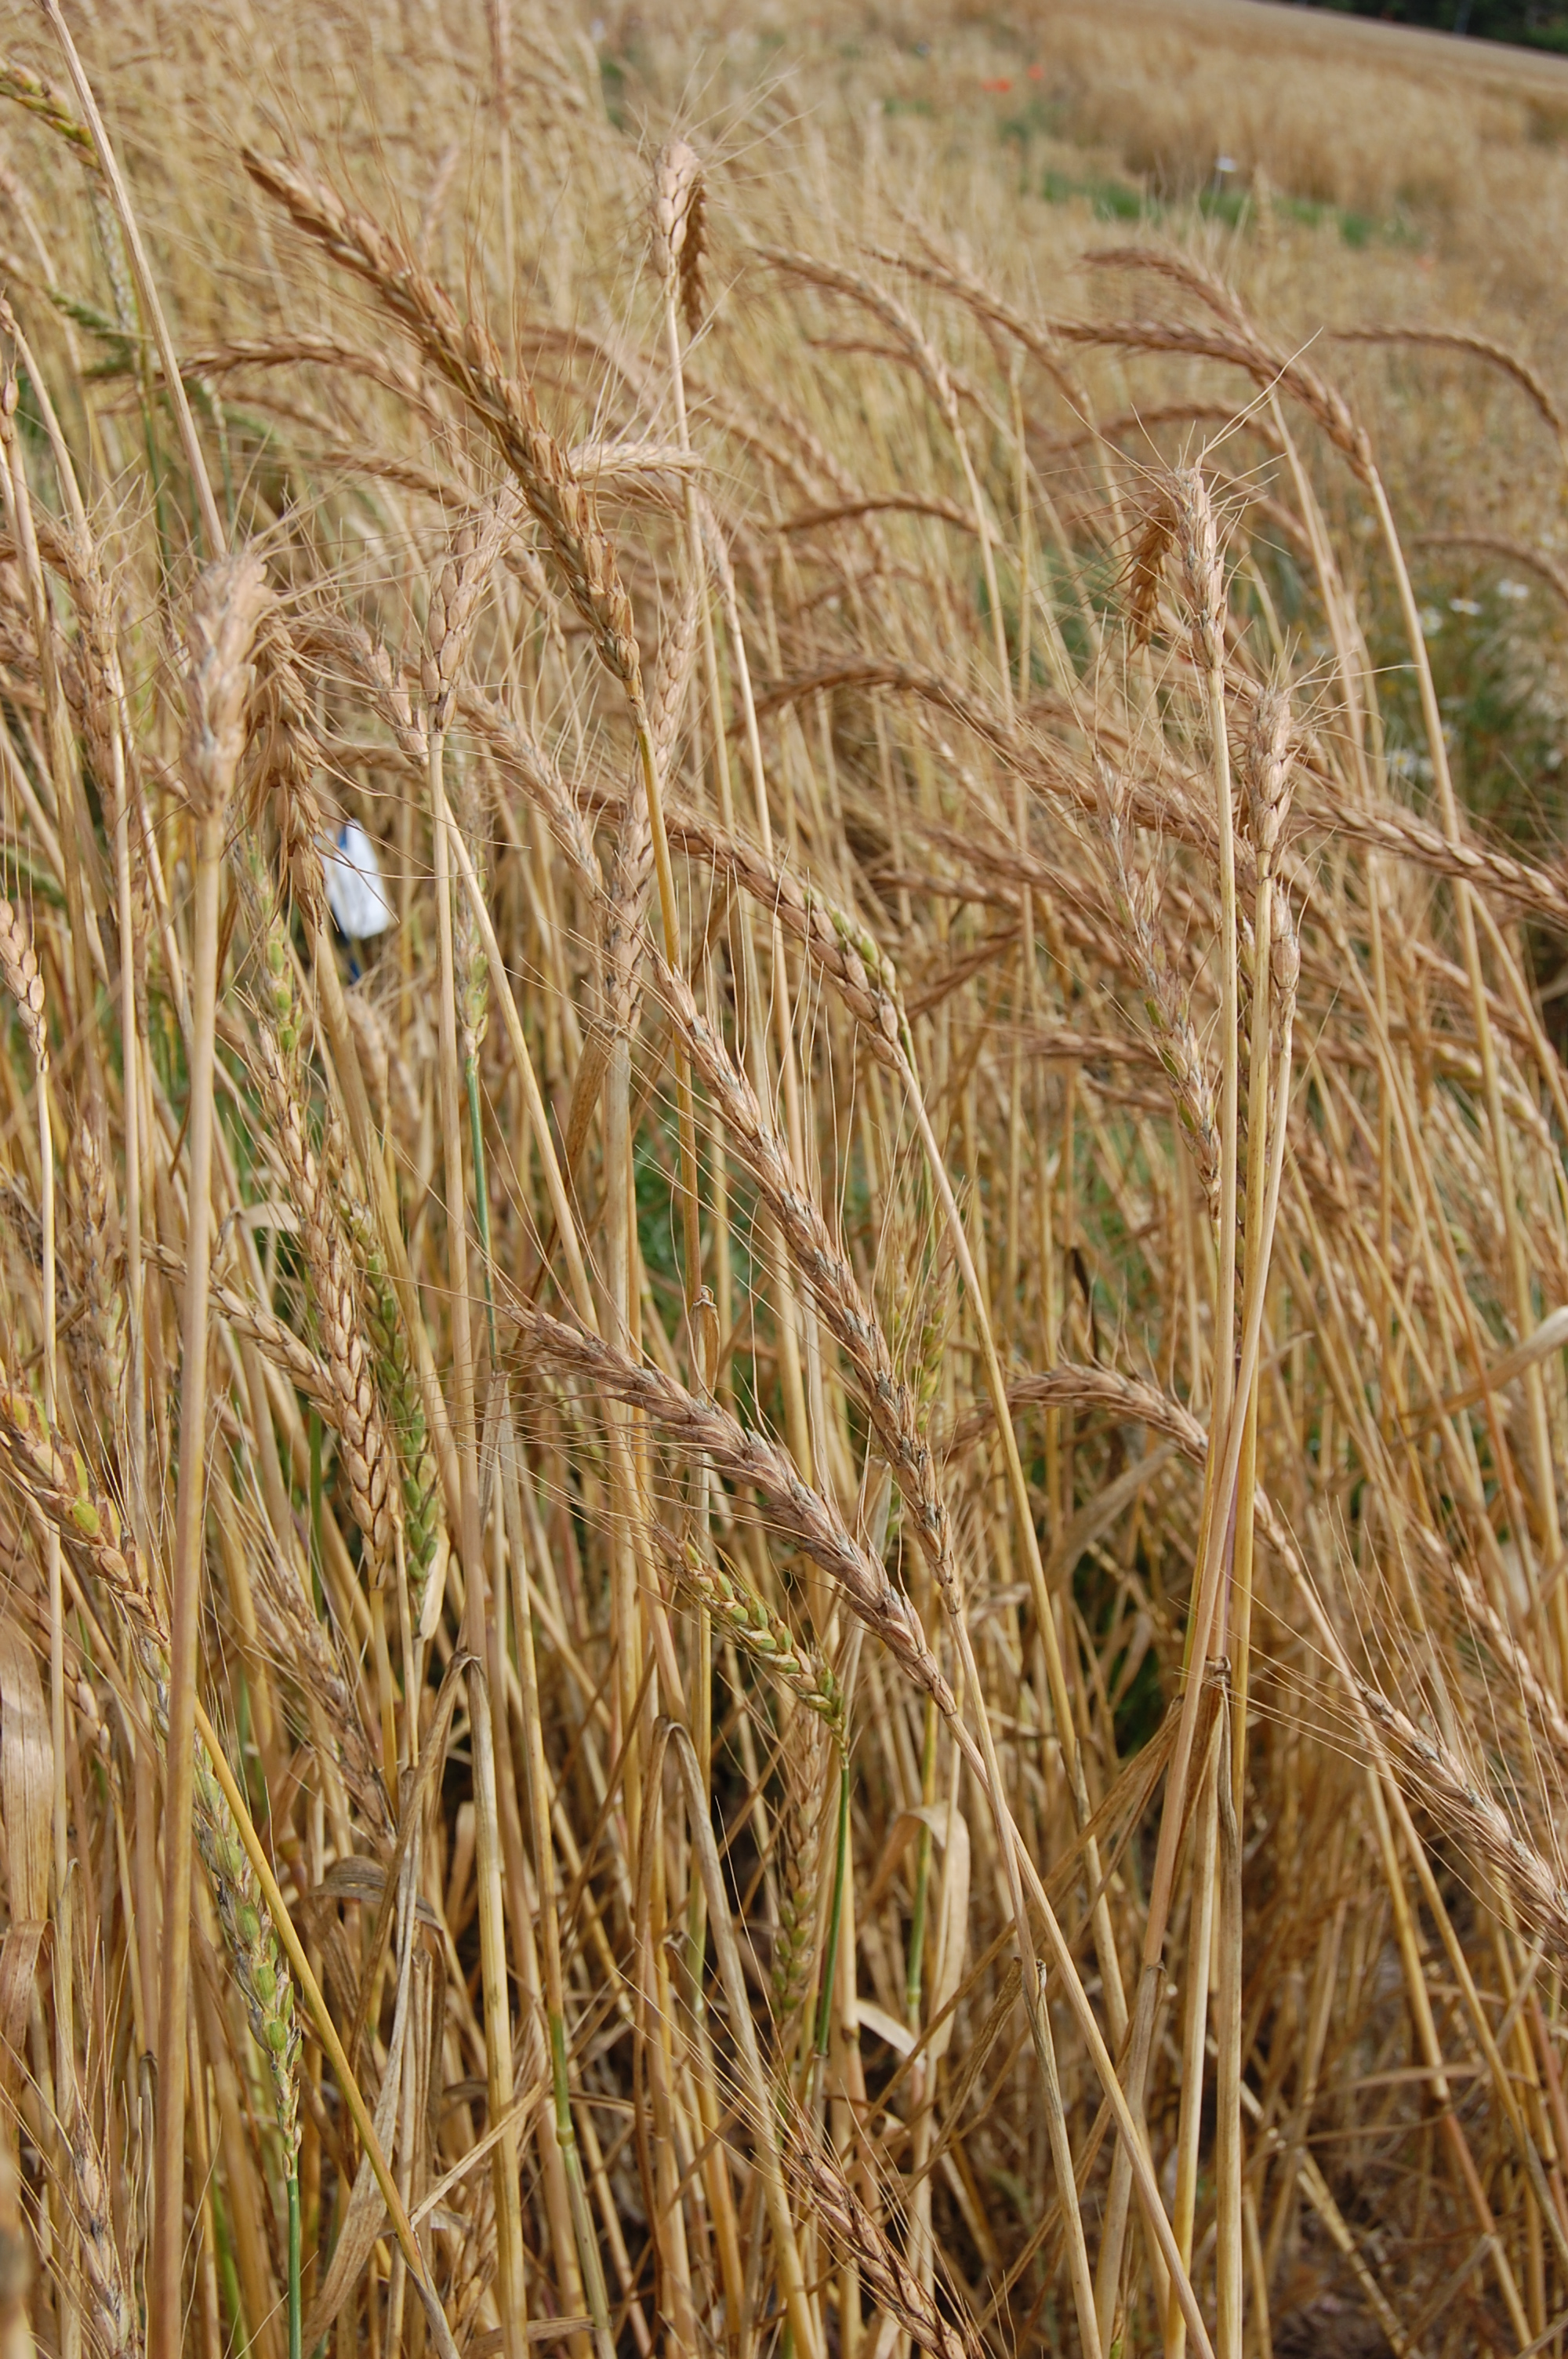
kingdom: Plantae
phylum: Tracheophyta
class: Liliopsida
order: Poales
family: Poaceae
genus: Triticum
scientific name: Triticum aestivum
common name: Common wheat
